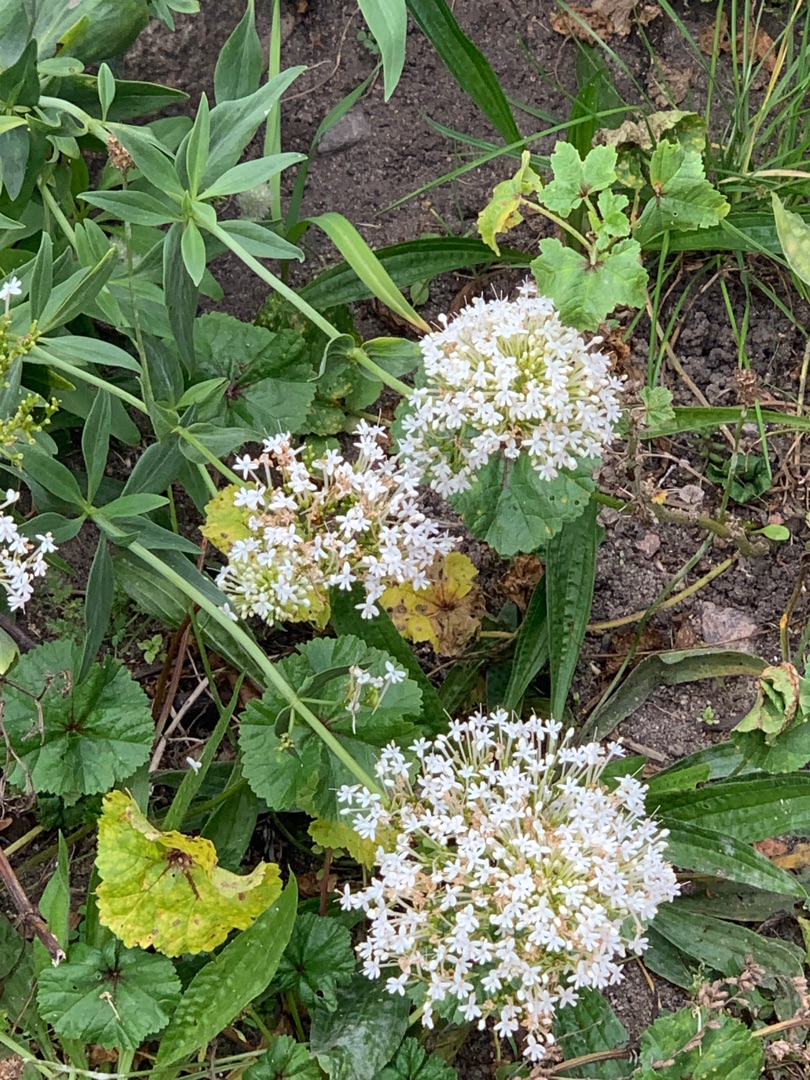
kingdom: Plantae
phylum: Tracheophyta
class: Magnoliopsida
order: Dipsacales
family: Caprifoliaceae
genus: Centranthus
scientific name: Centranthus ruber
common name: Sporebaldrian
